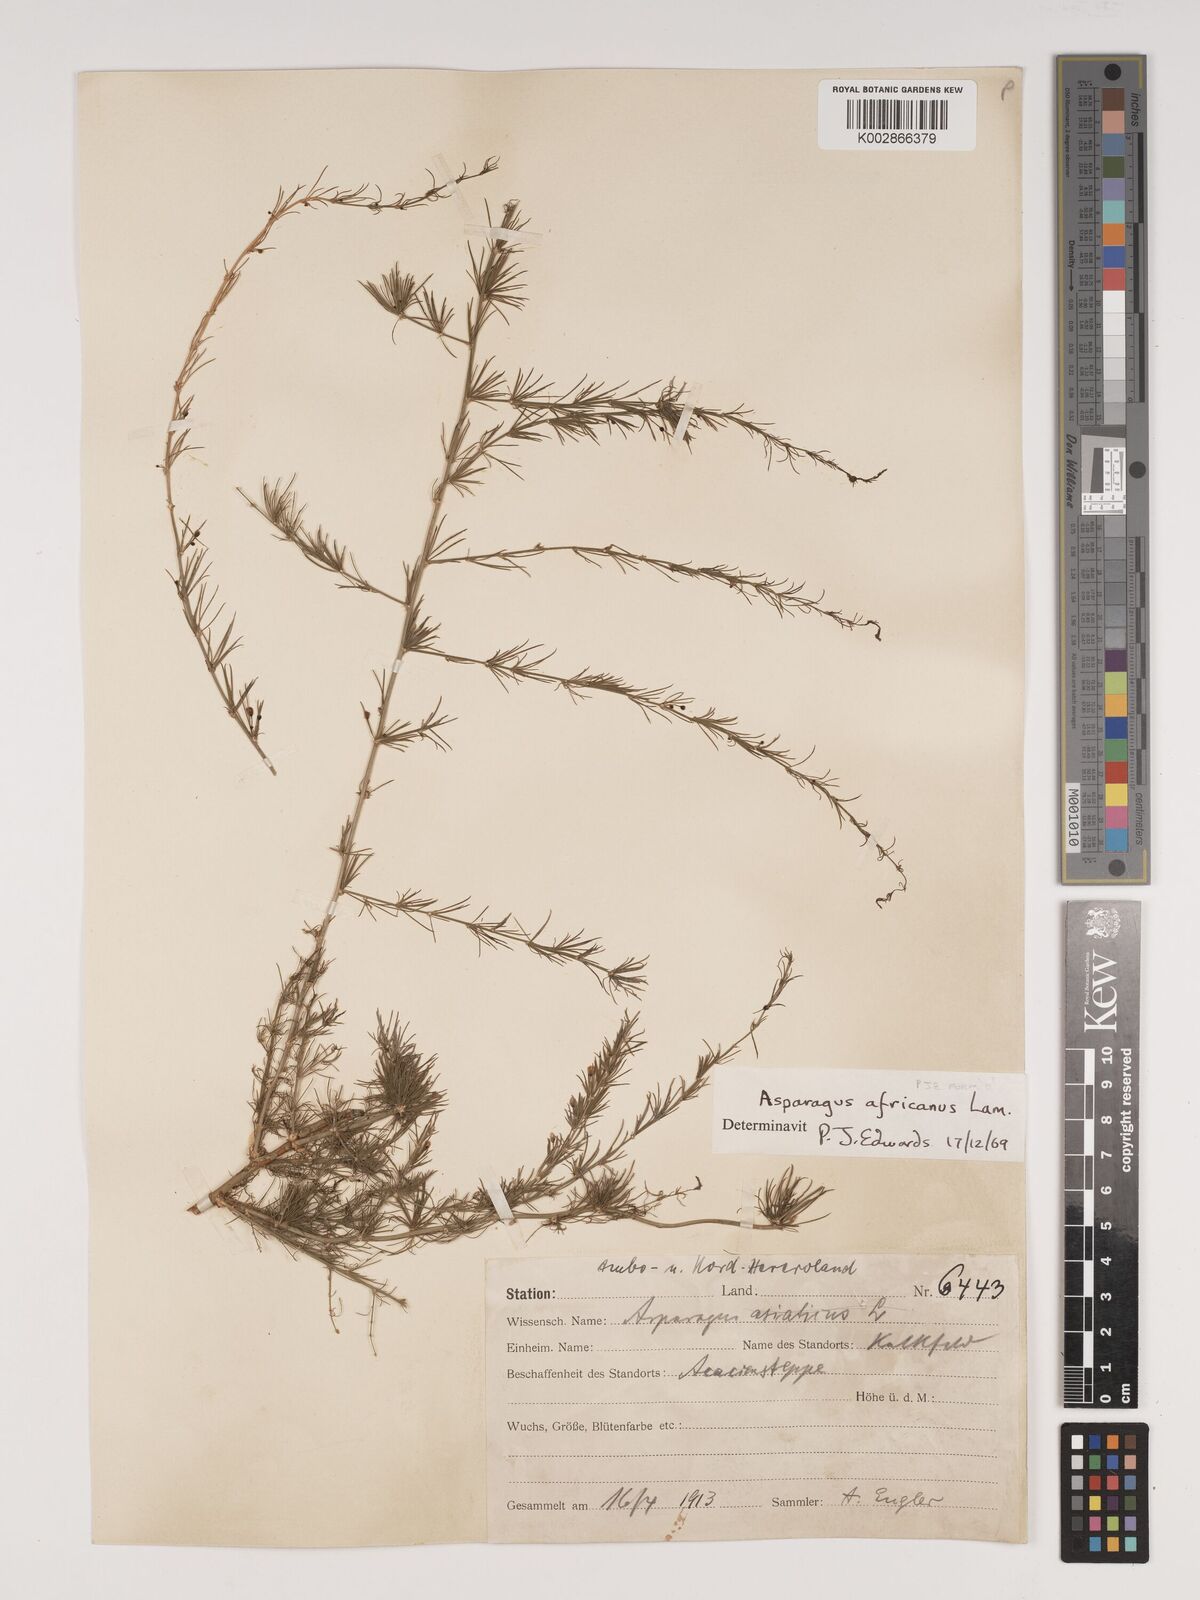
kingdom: Plantae
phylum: Tracheophyta
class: Liliopsida
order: Asparagales
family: Asparagaceae
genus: Asparagus
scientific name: Asparagus africanus
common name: Asparagus-fern
